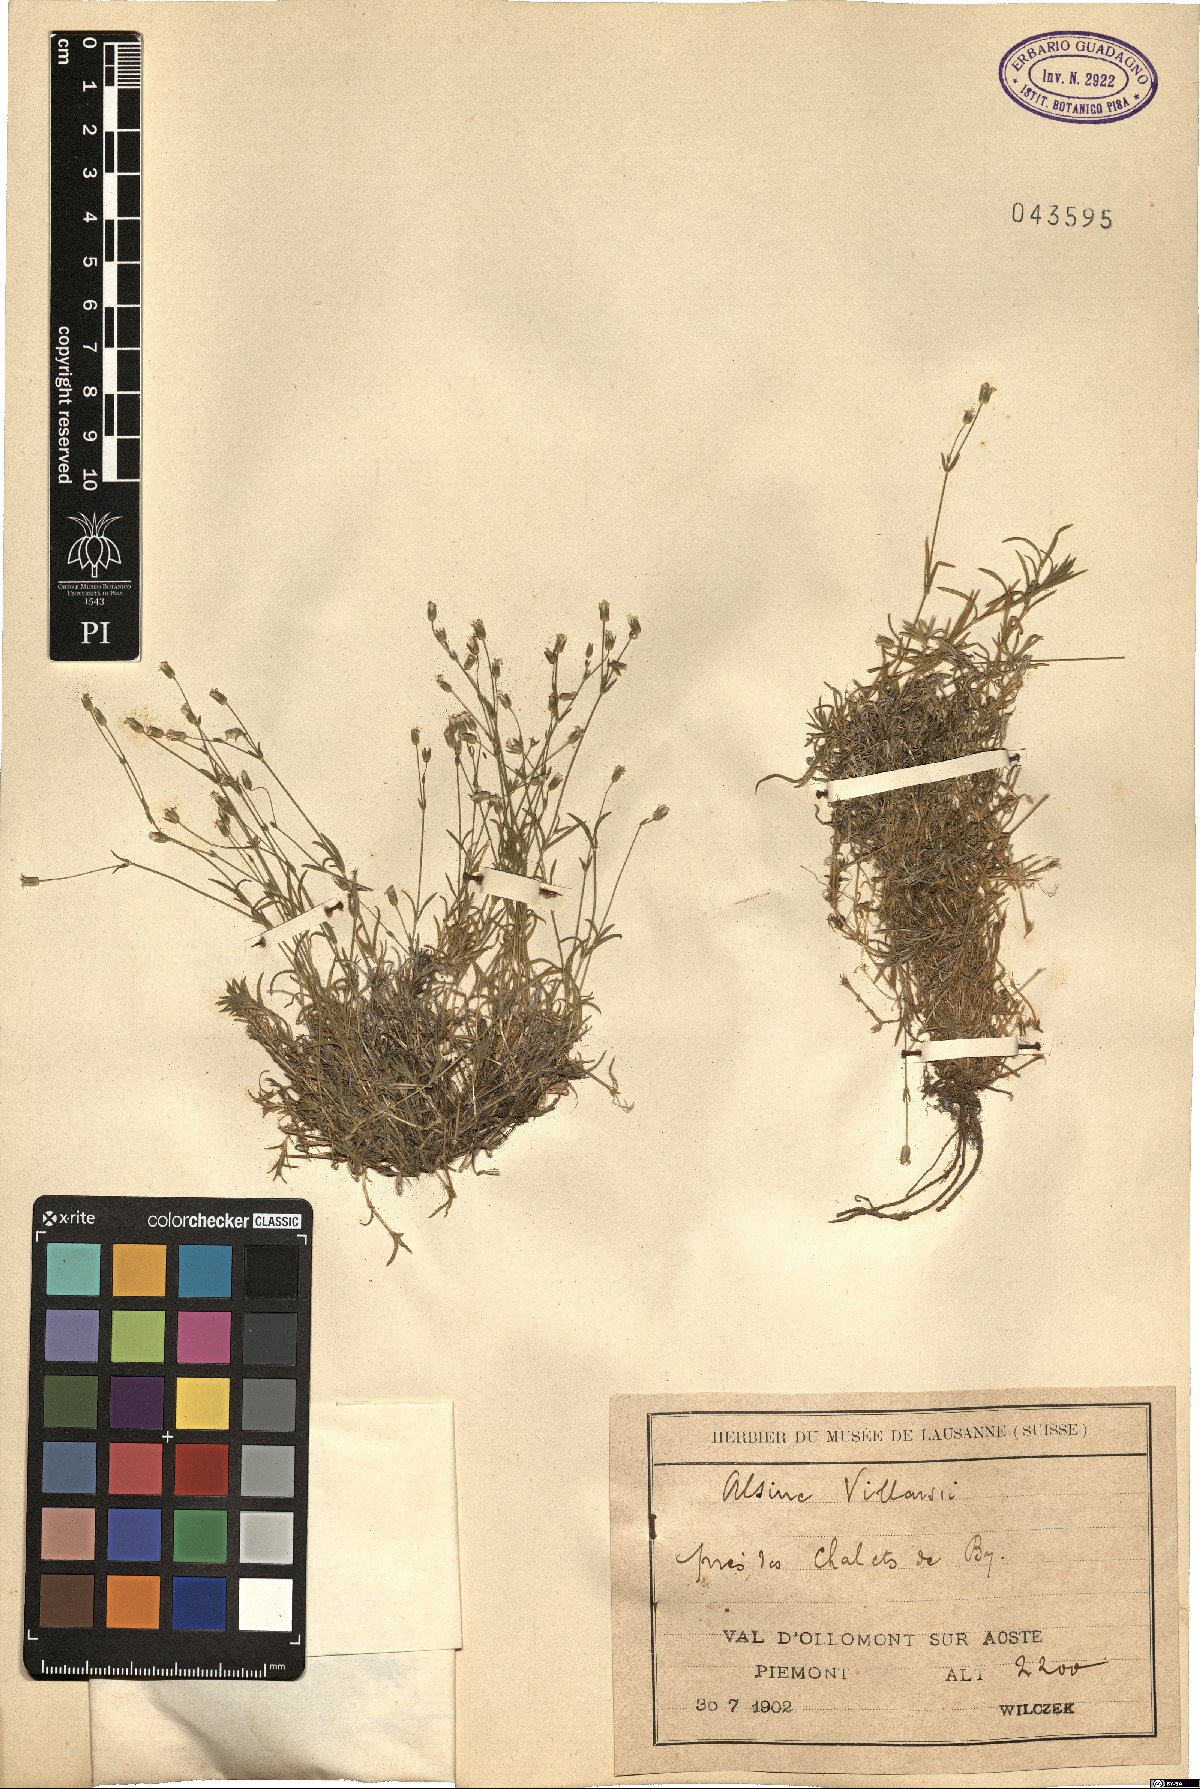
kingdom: Plantae
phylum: Tracheophyta
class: Magnoliopsida
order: Caryophyllales
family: Caryophyllaceae
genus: Sabulina
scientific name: Sabulina villarii
